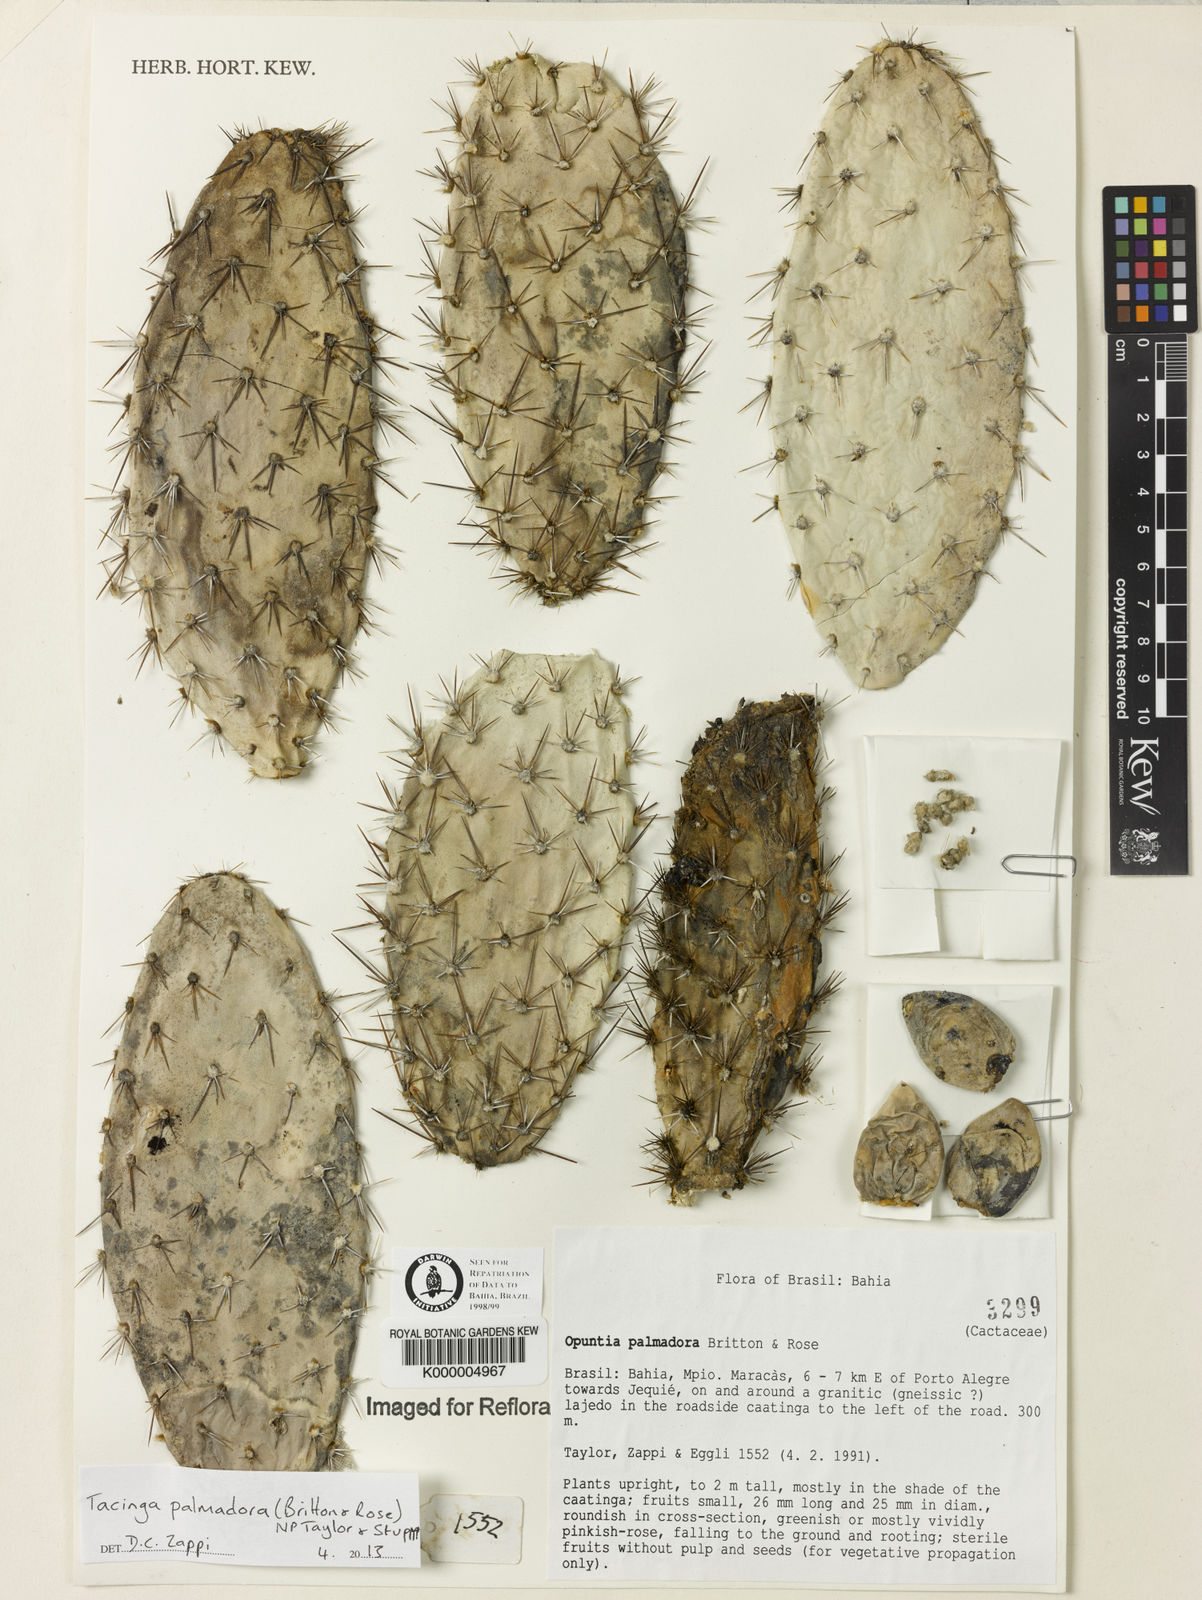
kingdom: Plantae
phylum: Tracheophyta
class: Magnoliopsida
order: Caryophyllales
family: Cactaceae
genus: Tacinga
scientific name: Tacinga palmadora
